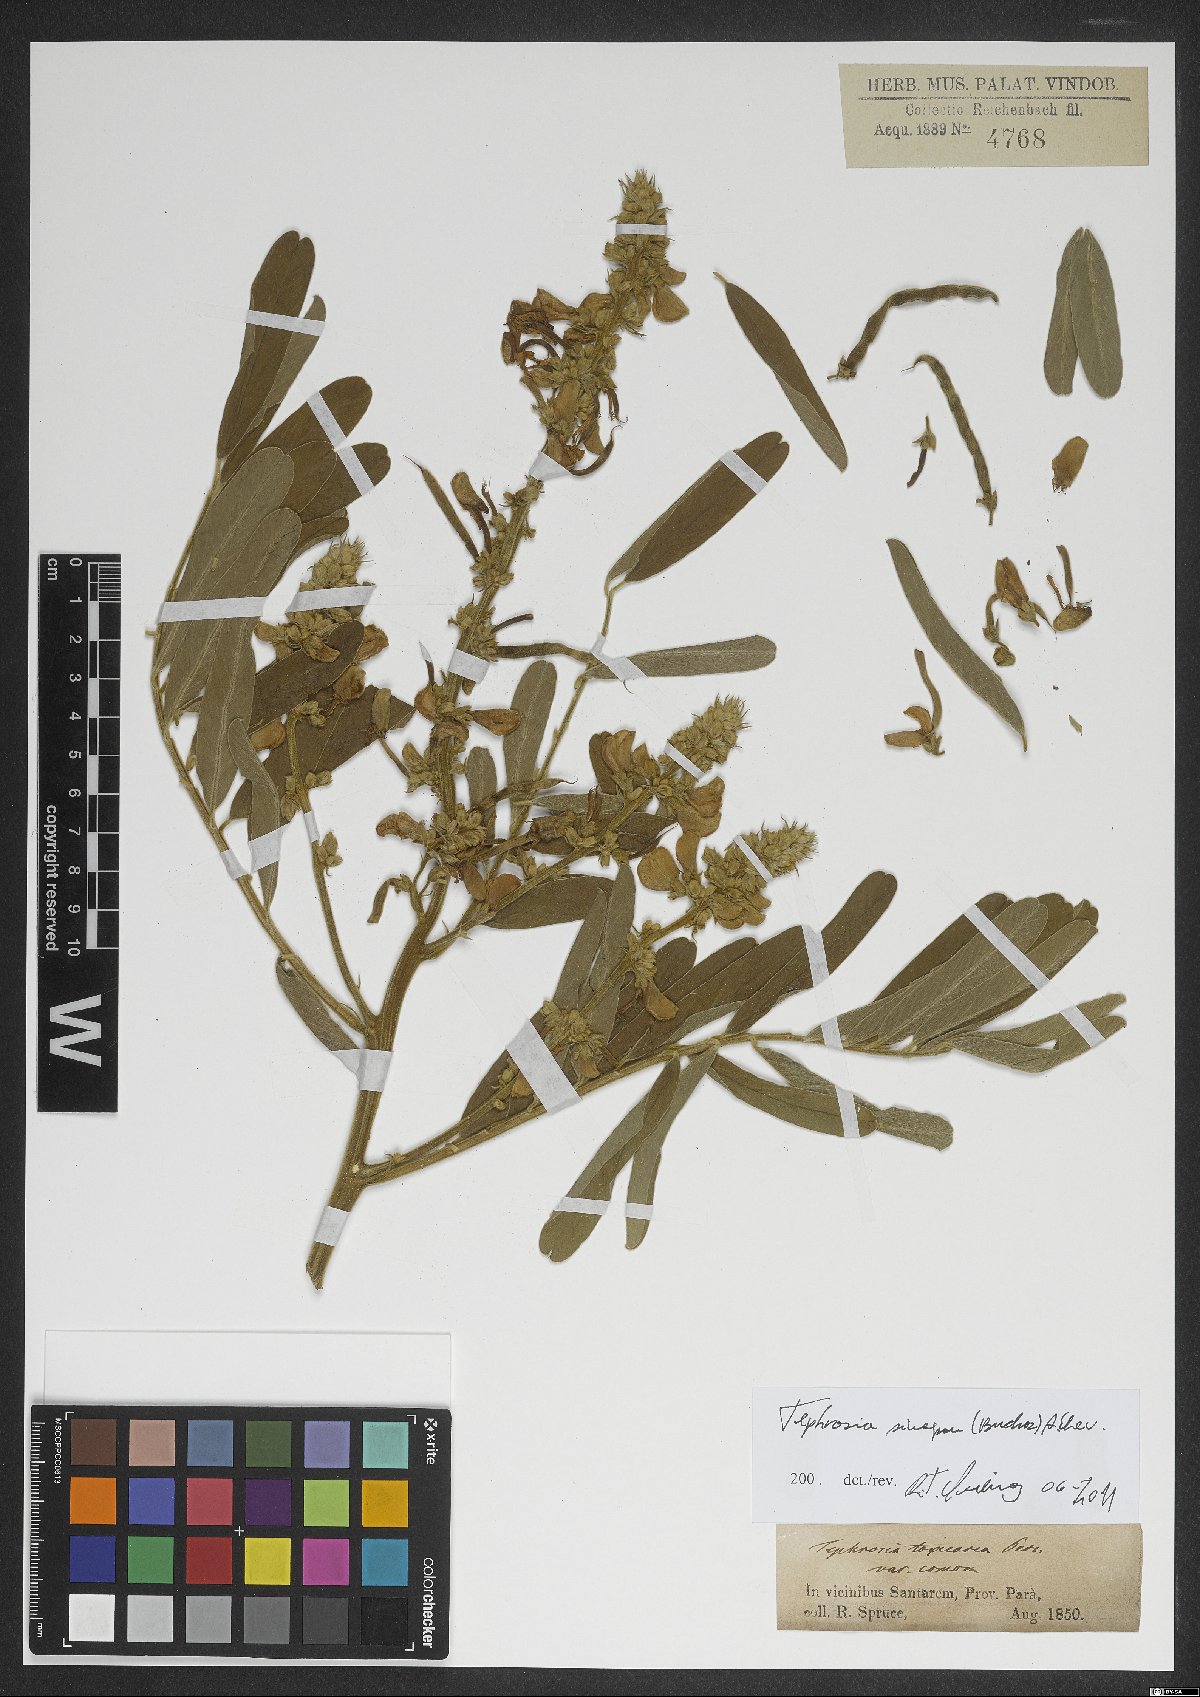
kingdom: Plantae
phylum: Tracheophyta
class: Magnoliopsida
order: Fabales
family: Fabaceae
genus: Tephrosia
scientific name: Tephrosia sinapou
